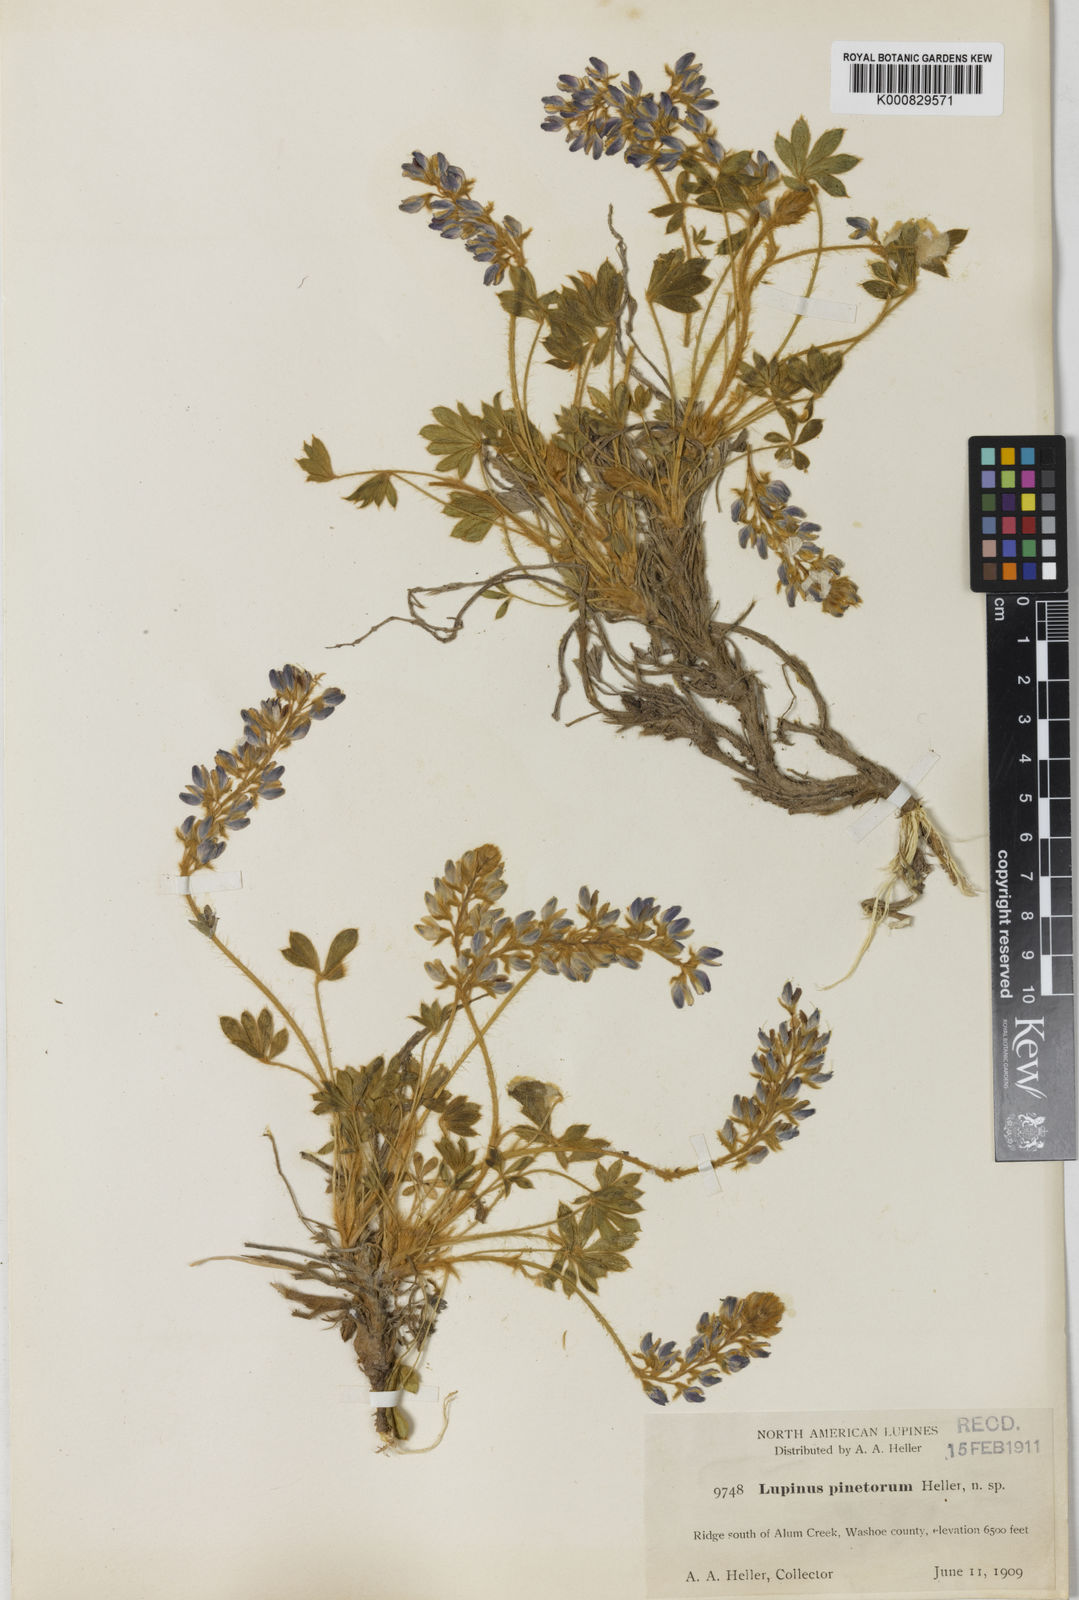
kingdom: Plantae
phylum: Tracheophyta
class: Magnoliopsida
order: Fabales
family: Fabaceae
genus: Lupinus
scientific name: Lupinus lyallii
